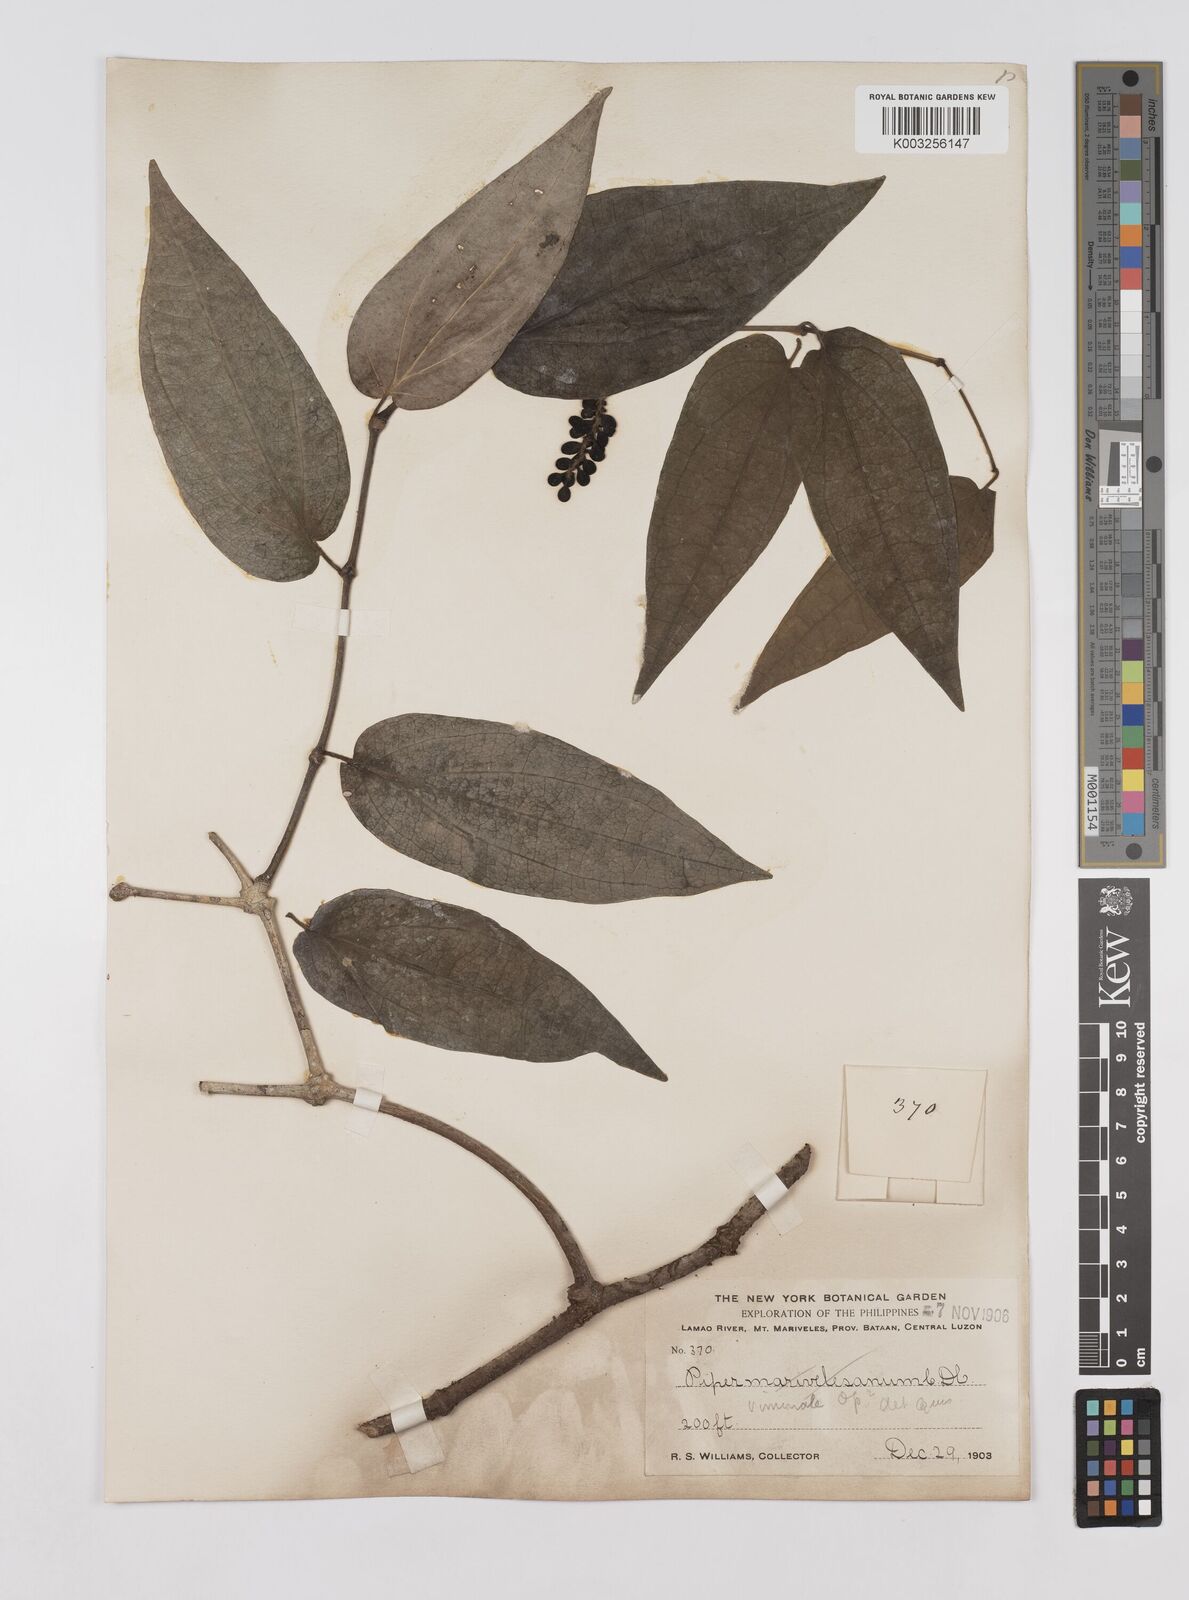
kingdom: Plantae
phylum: Tracheophyta
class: Magnoliopsida
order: Piperales
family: Piperaceae
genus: Piper
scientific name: Piper lanatum
